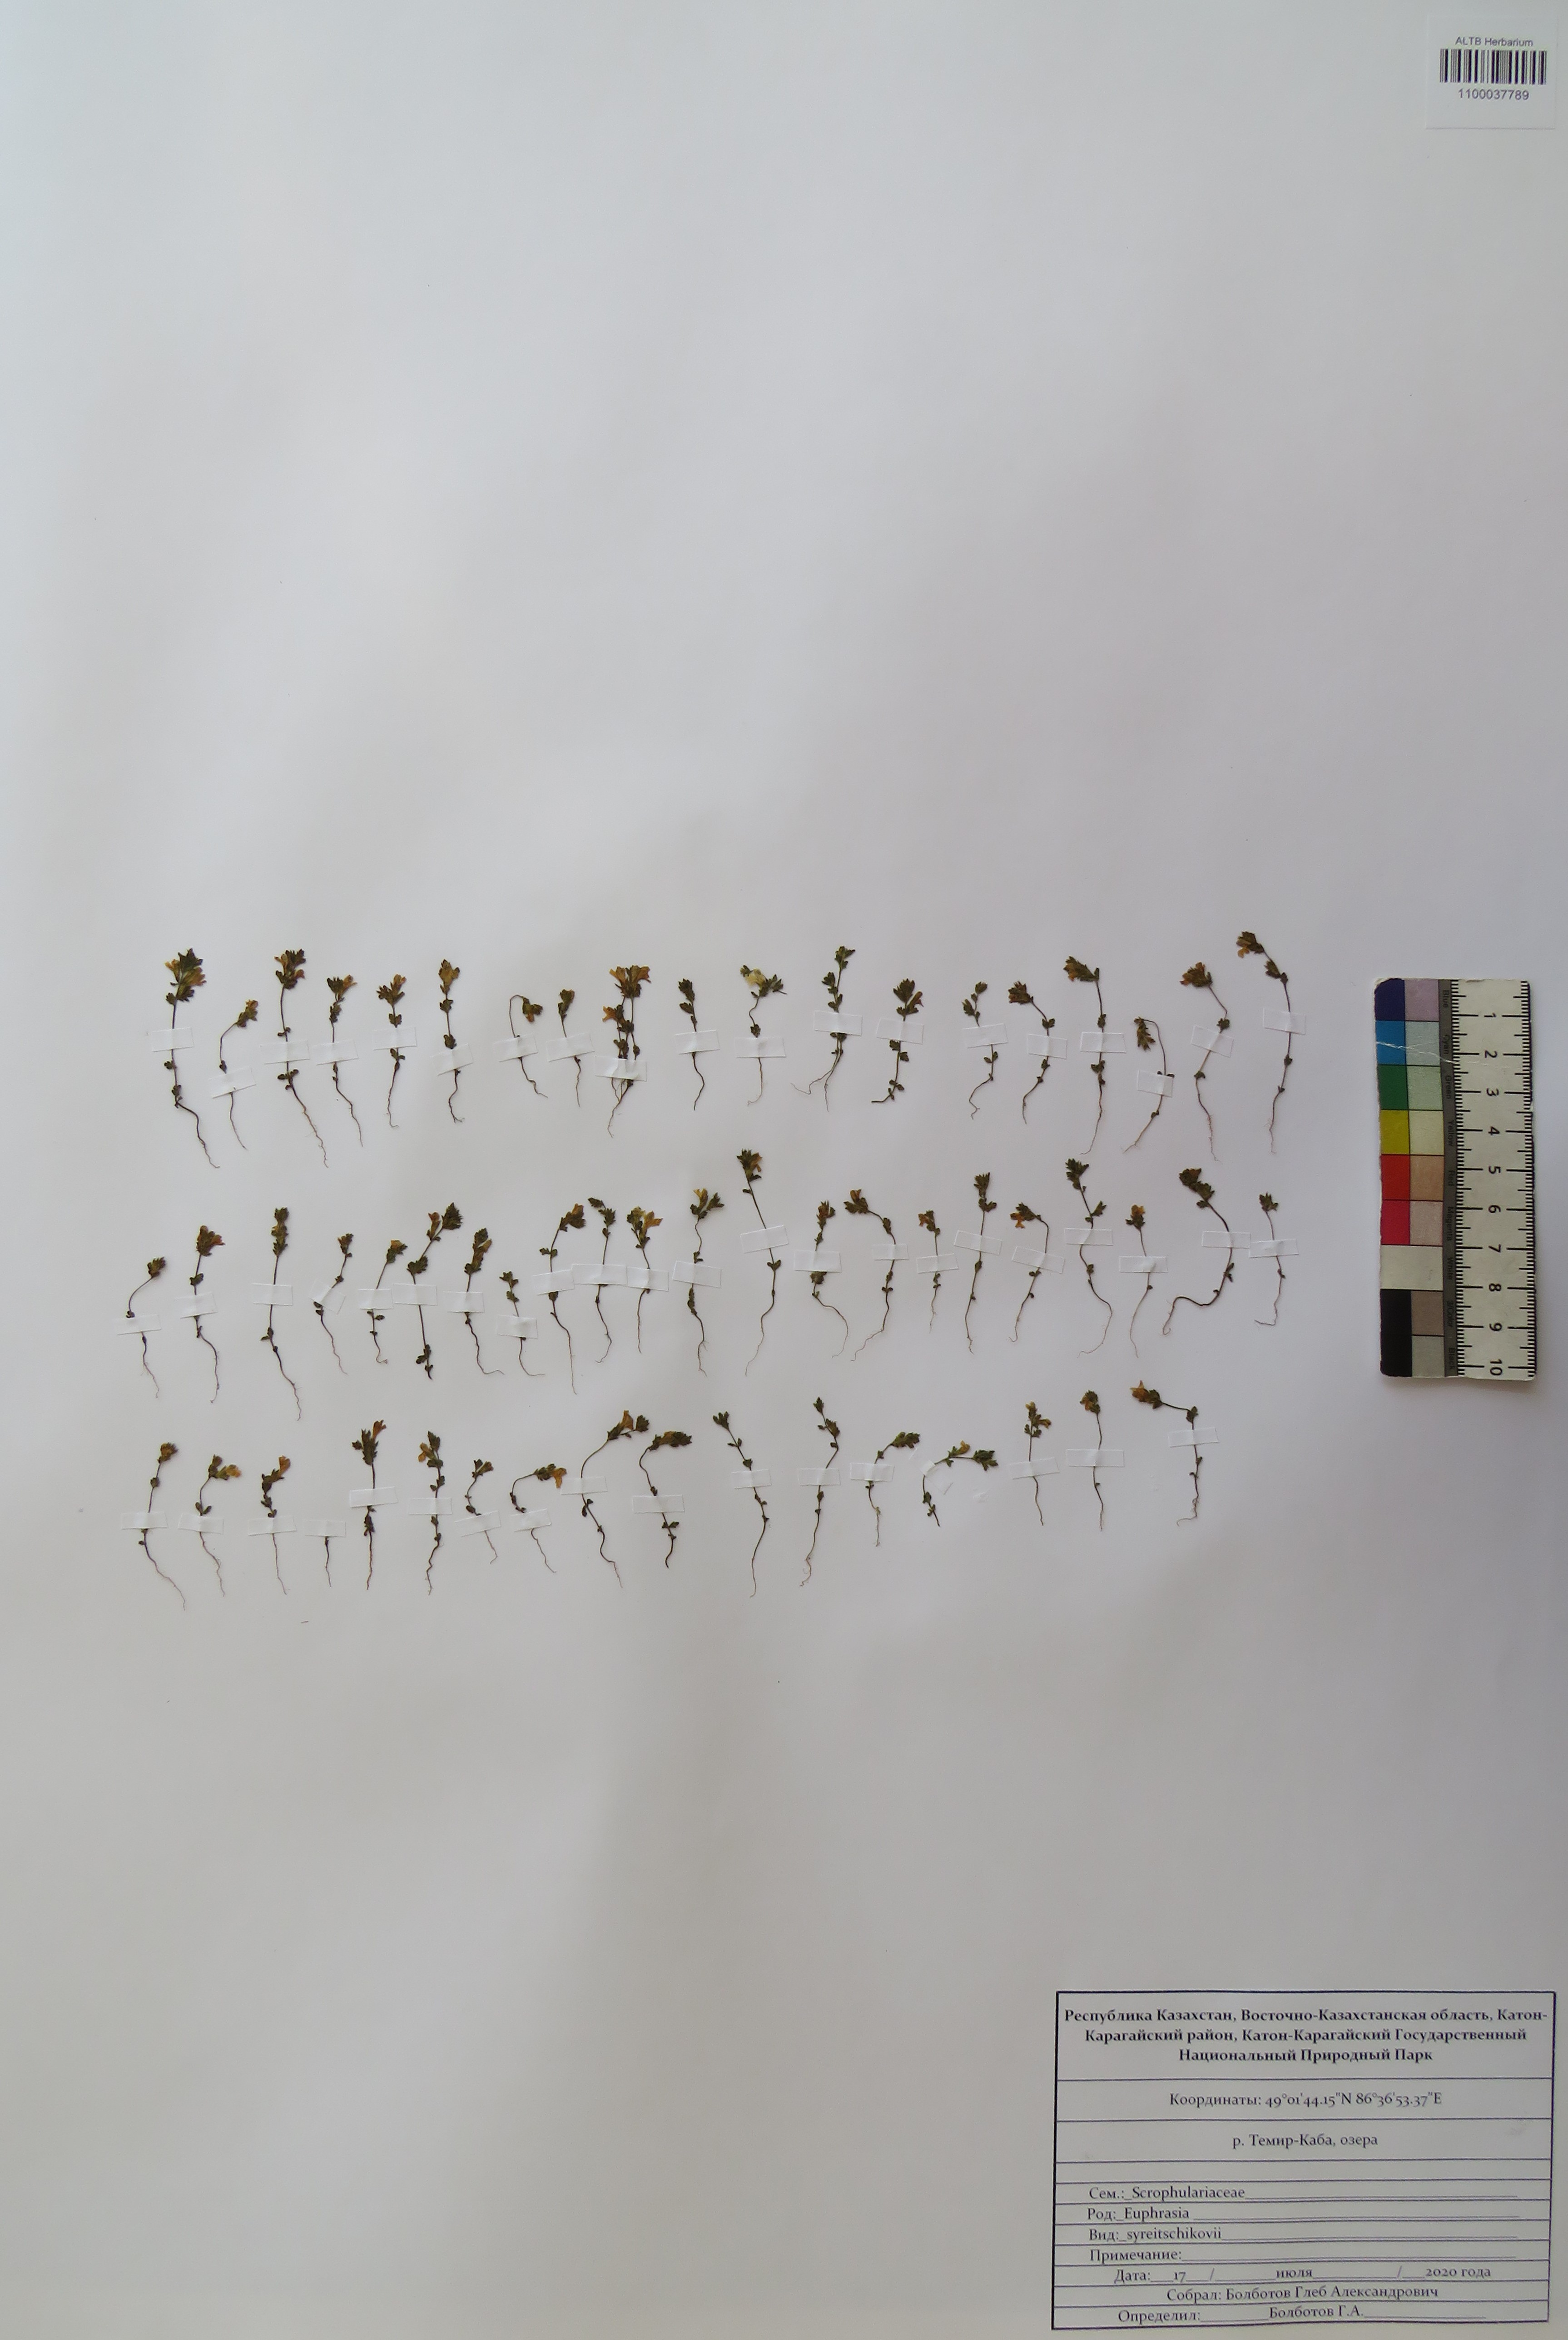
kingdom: Plantae
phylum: Tracheophyta
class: Magnoliopsida
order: Lamiales
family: Orobanchaceae
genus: Euphrasia
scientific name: Euphrasia syreitschikovii
